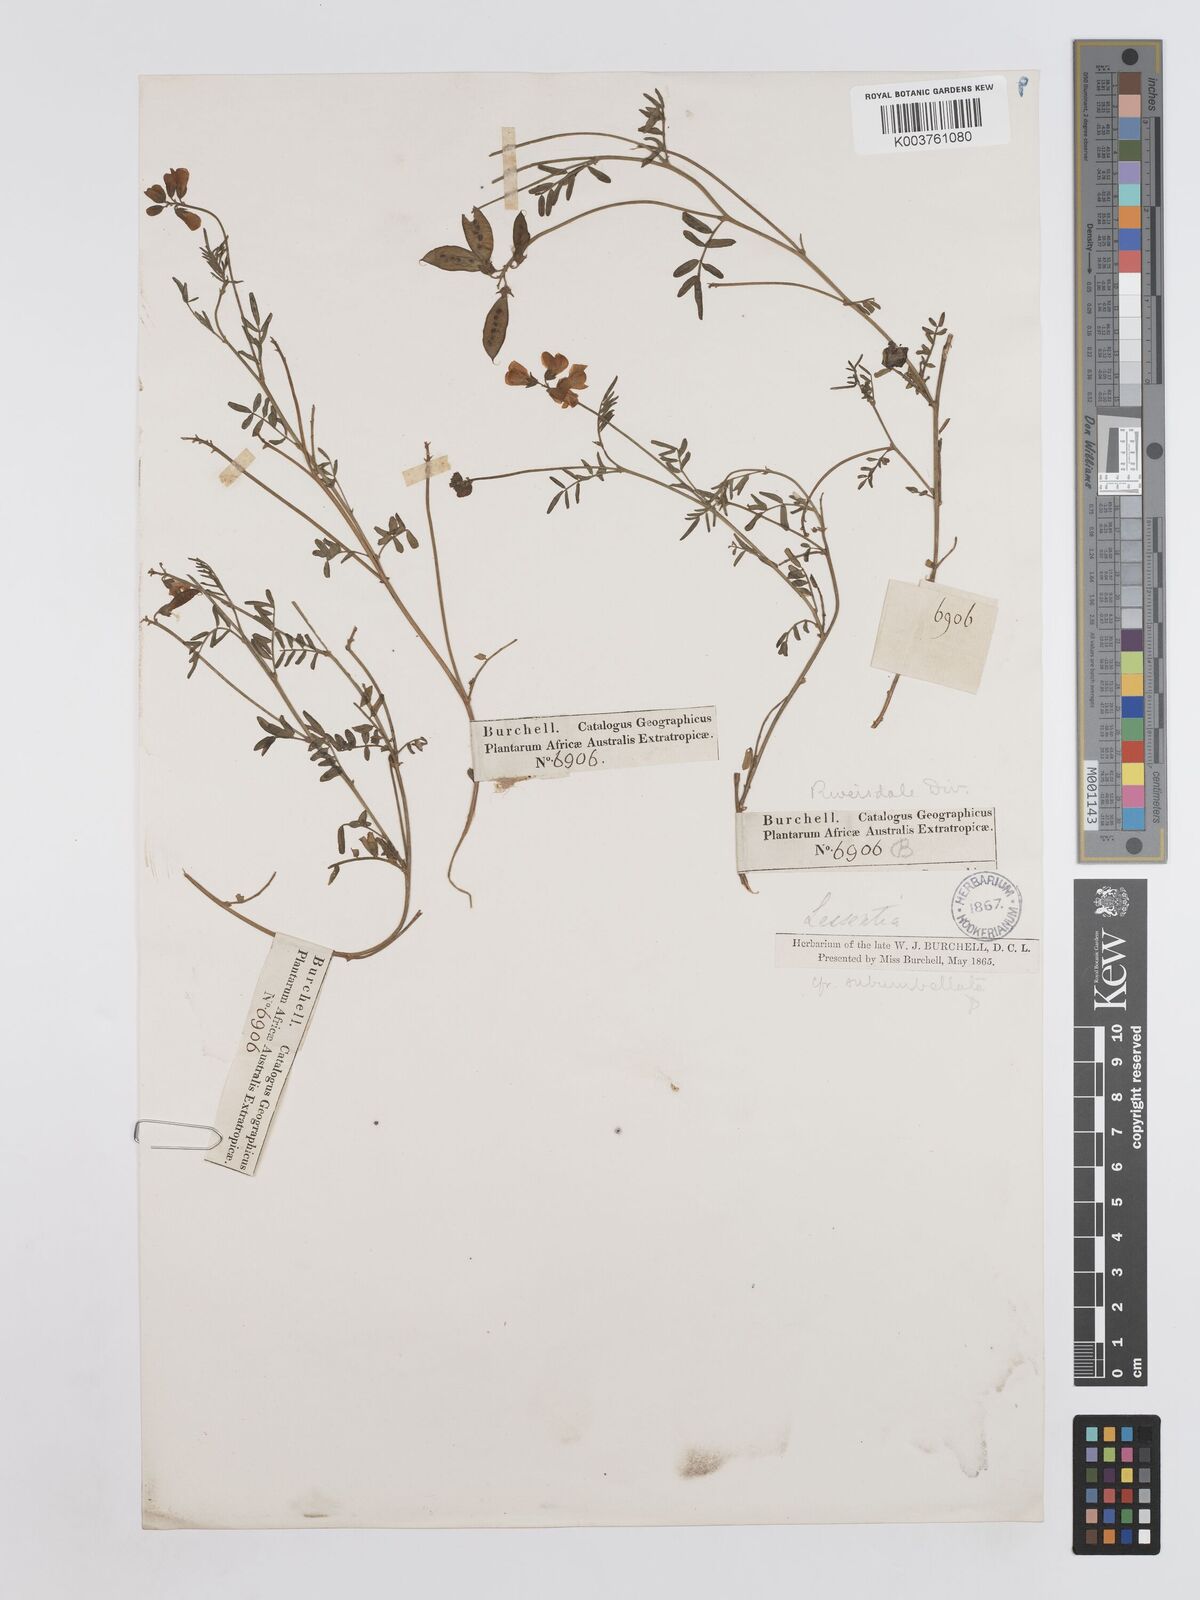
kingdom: Plantae
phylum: Tracheophyta
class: Magnoliopsida
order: Fabales
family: Fabaceae
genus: Lessertia
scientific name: Lessertia subumbellata
